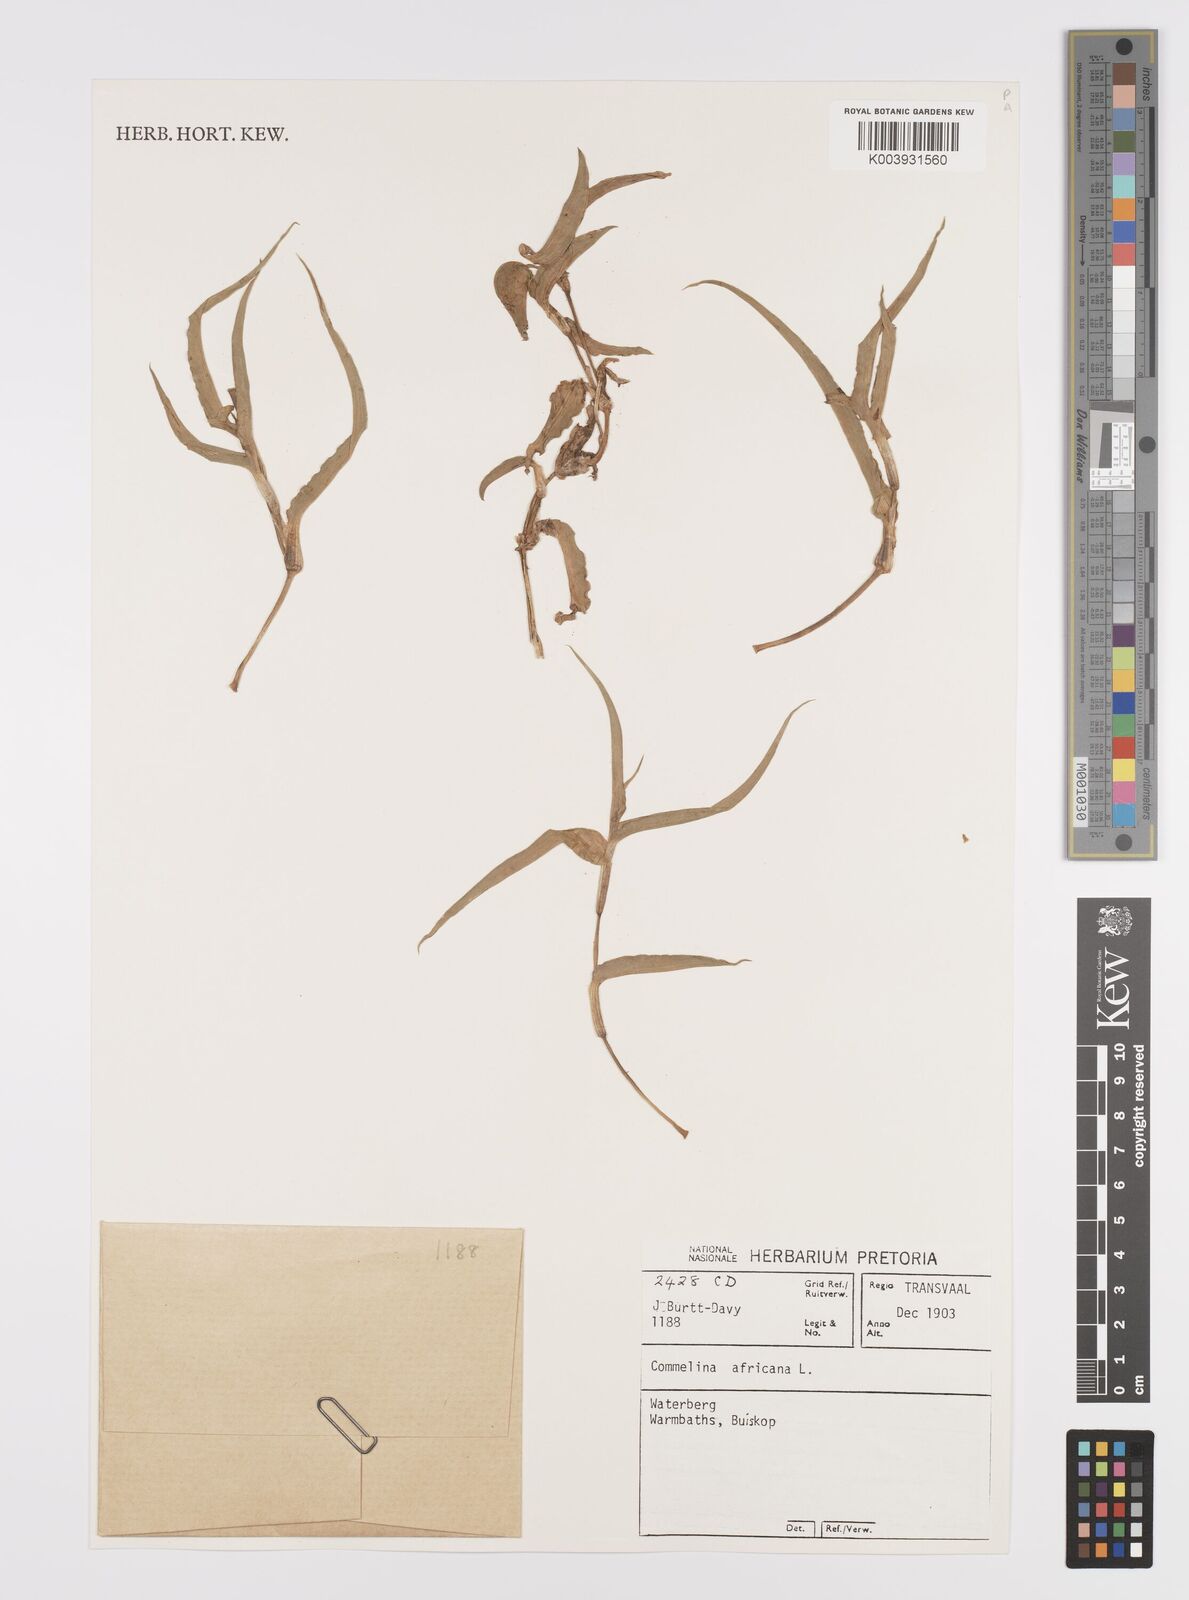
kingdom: Plantae
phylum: Tracheophyta
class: Liliopsida
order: Commelinales
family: Commelinaceae
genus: Commelina
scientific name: Commelina africana
